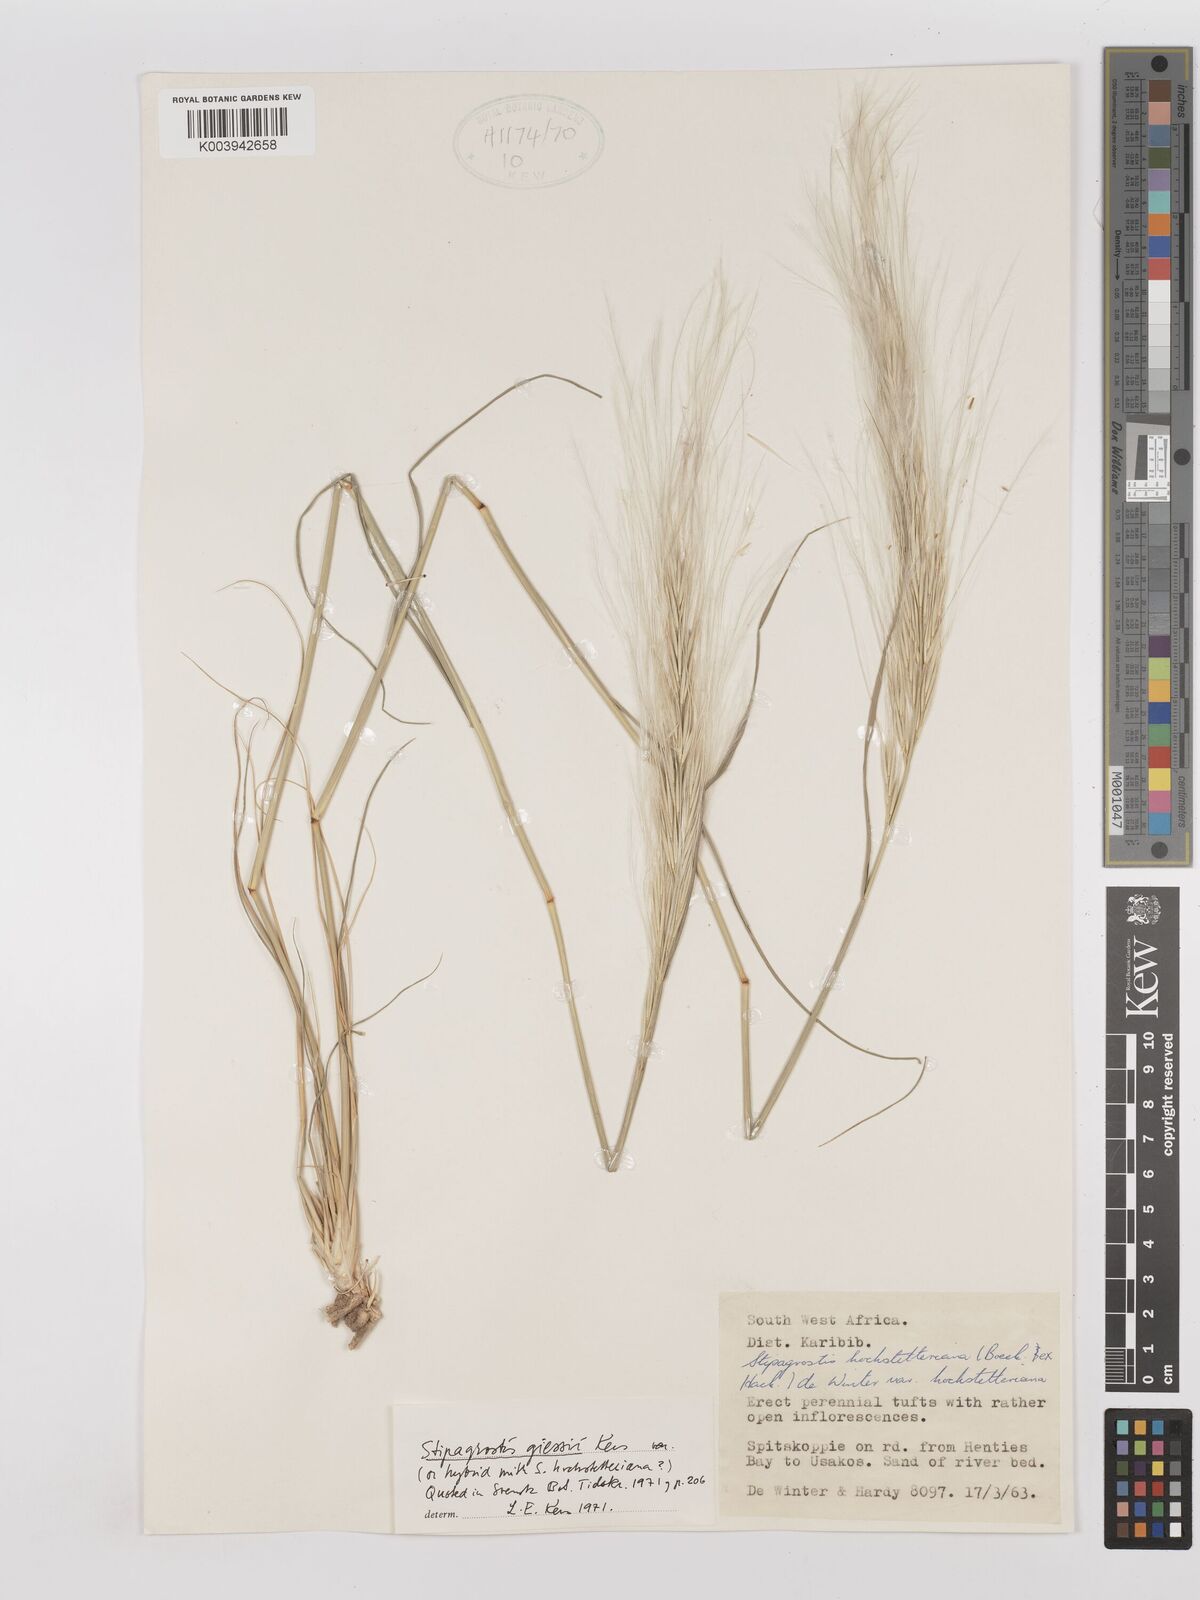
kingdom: Plantae
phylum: Tracheophyta
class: Liliopsida
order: Poales
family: Poaceae
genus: Stipagrostis
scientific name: Stipagrostis giessii
